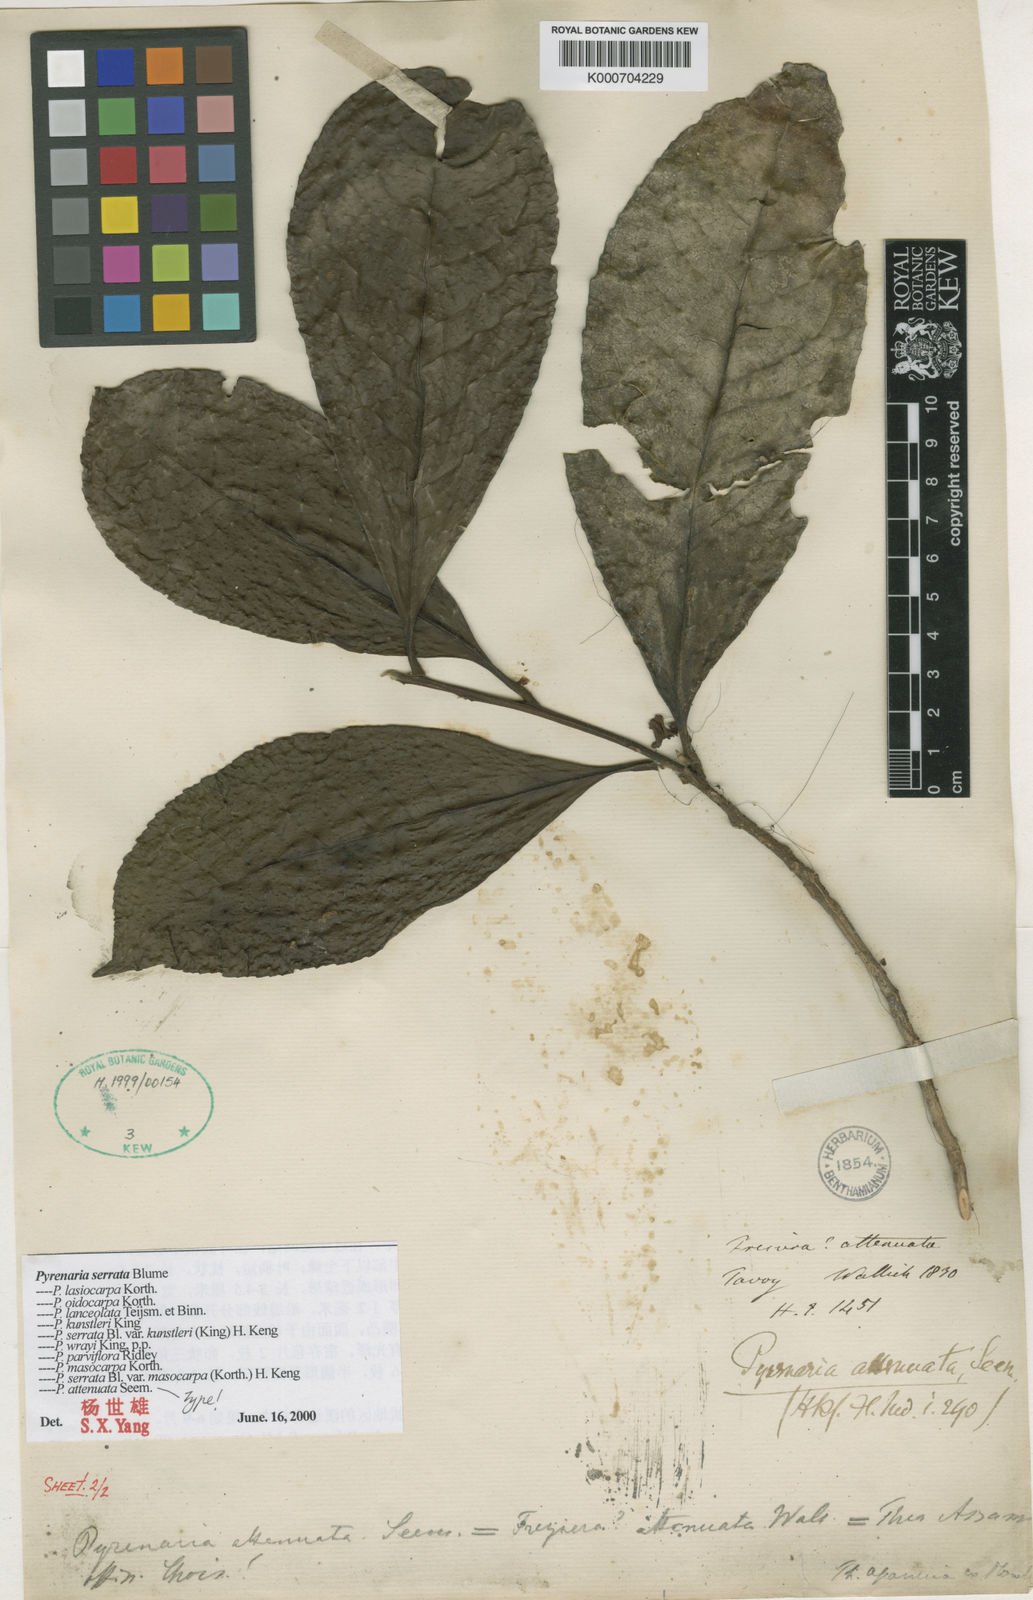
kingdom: Plantae
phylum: Tracheophyta
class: Magnoliopsida
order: Ericales
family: Theaceae
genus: Pyrenaria
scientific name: Pyrenaria attenuata
